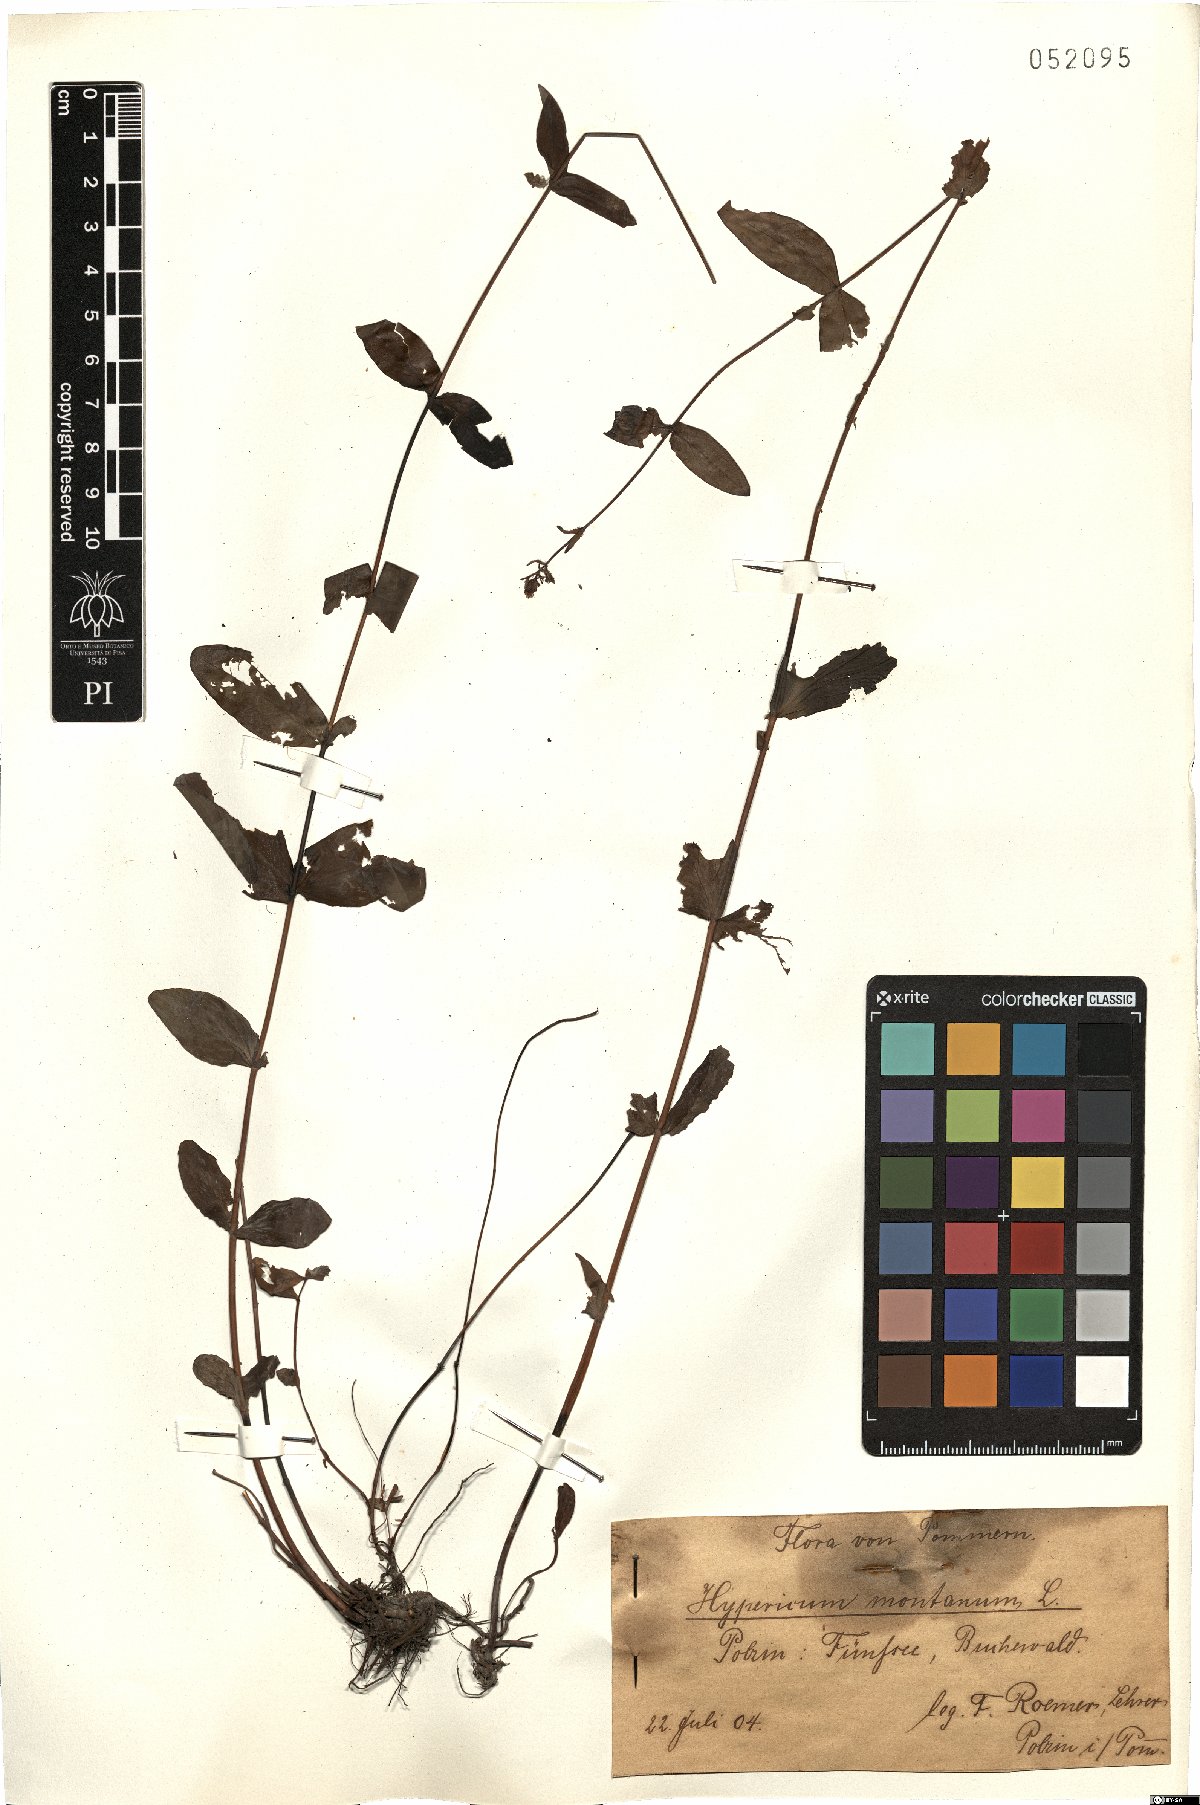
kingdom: Plantae
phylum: Tracheophyta
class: Magnoliopsida
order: Malpighiales
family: Hypericaceae
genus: Hypericum
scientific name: Hypericum montanum
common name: Pale st. john's-wort
